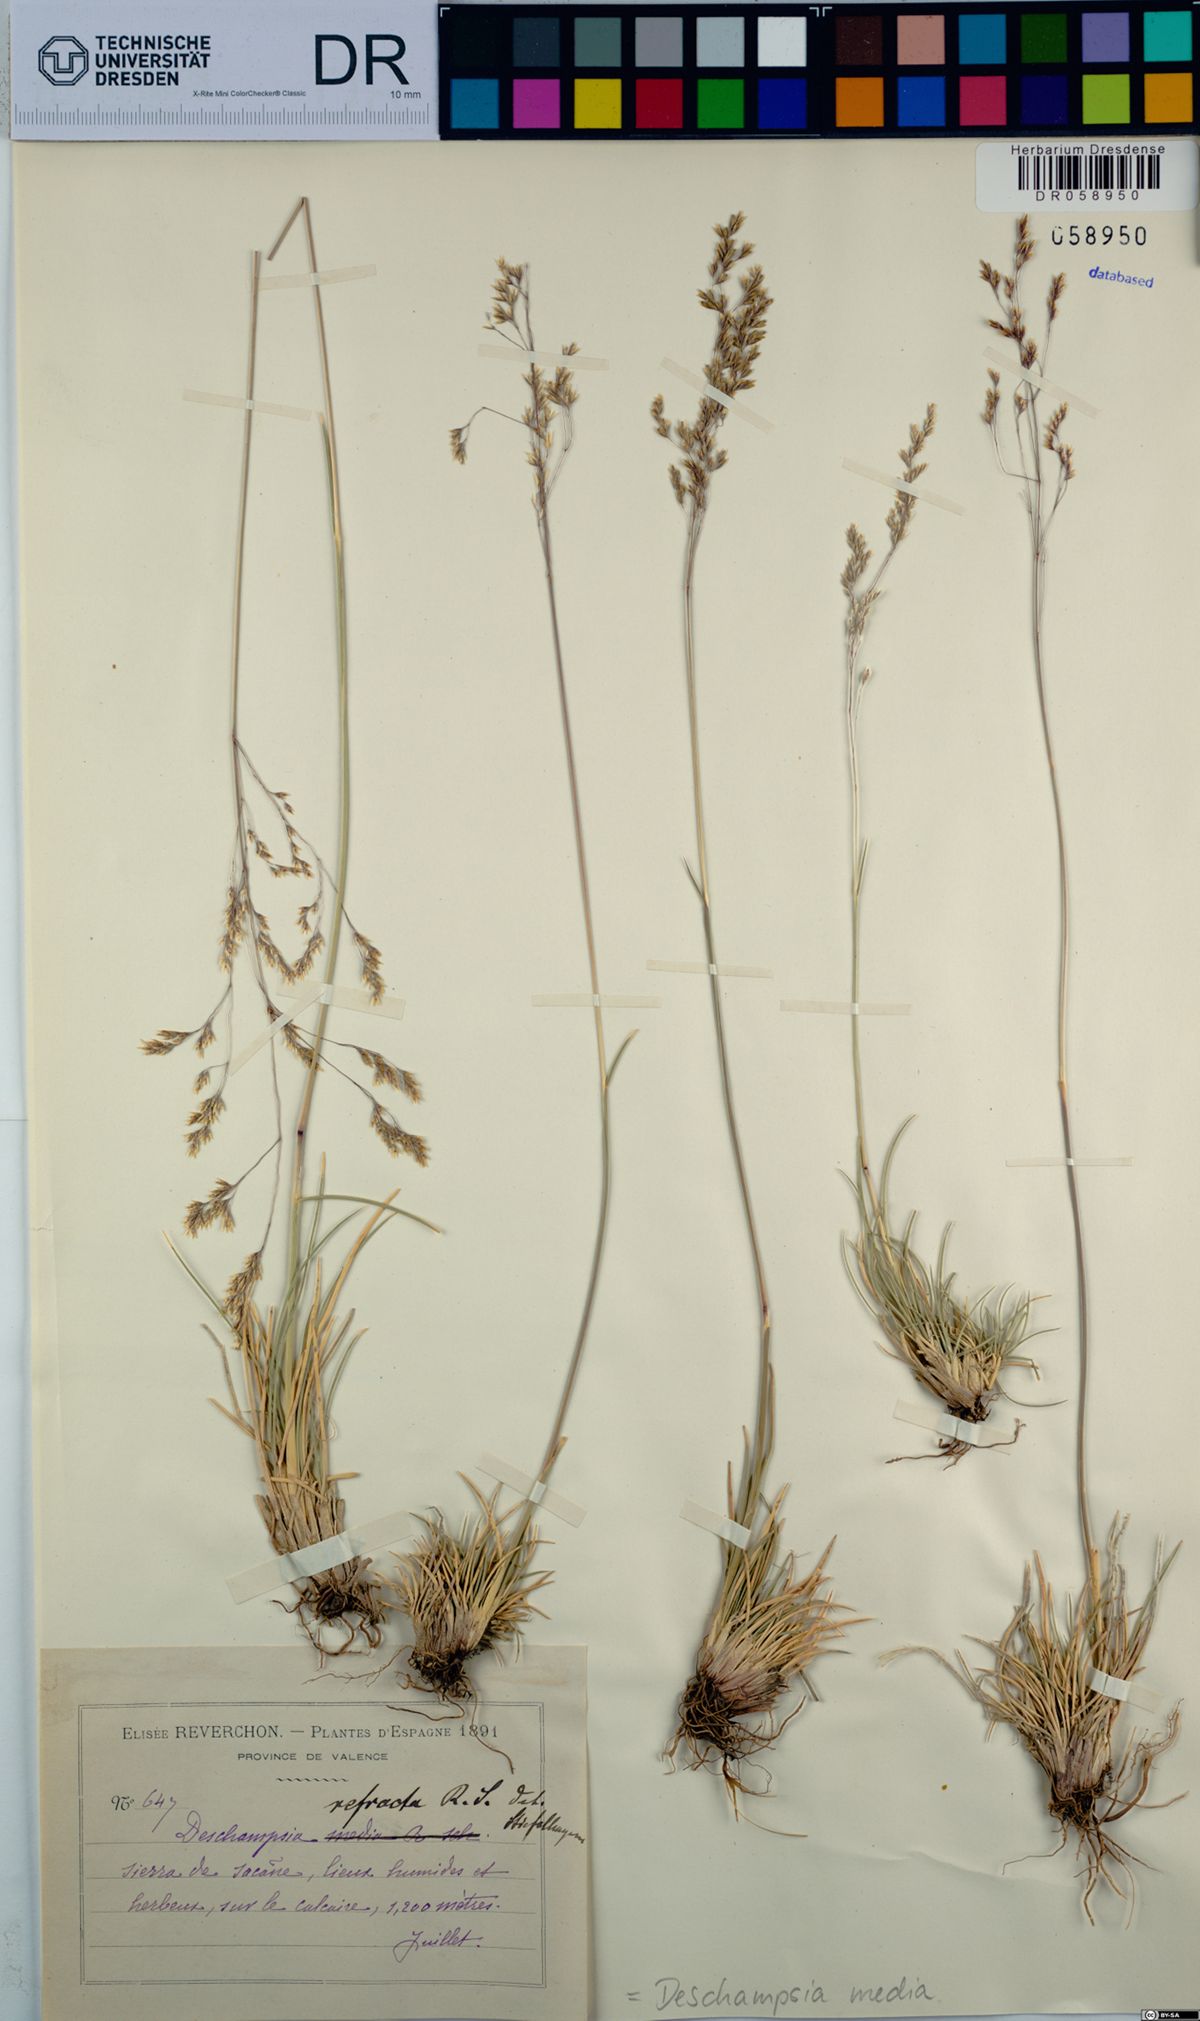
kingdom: Plantae
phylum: Tracheophyta
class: Liliopsida
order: Poales
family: Poaceae
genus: Deschampsia
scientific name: Deschampsia media
